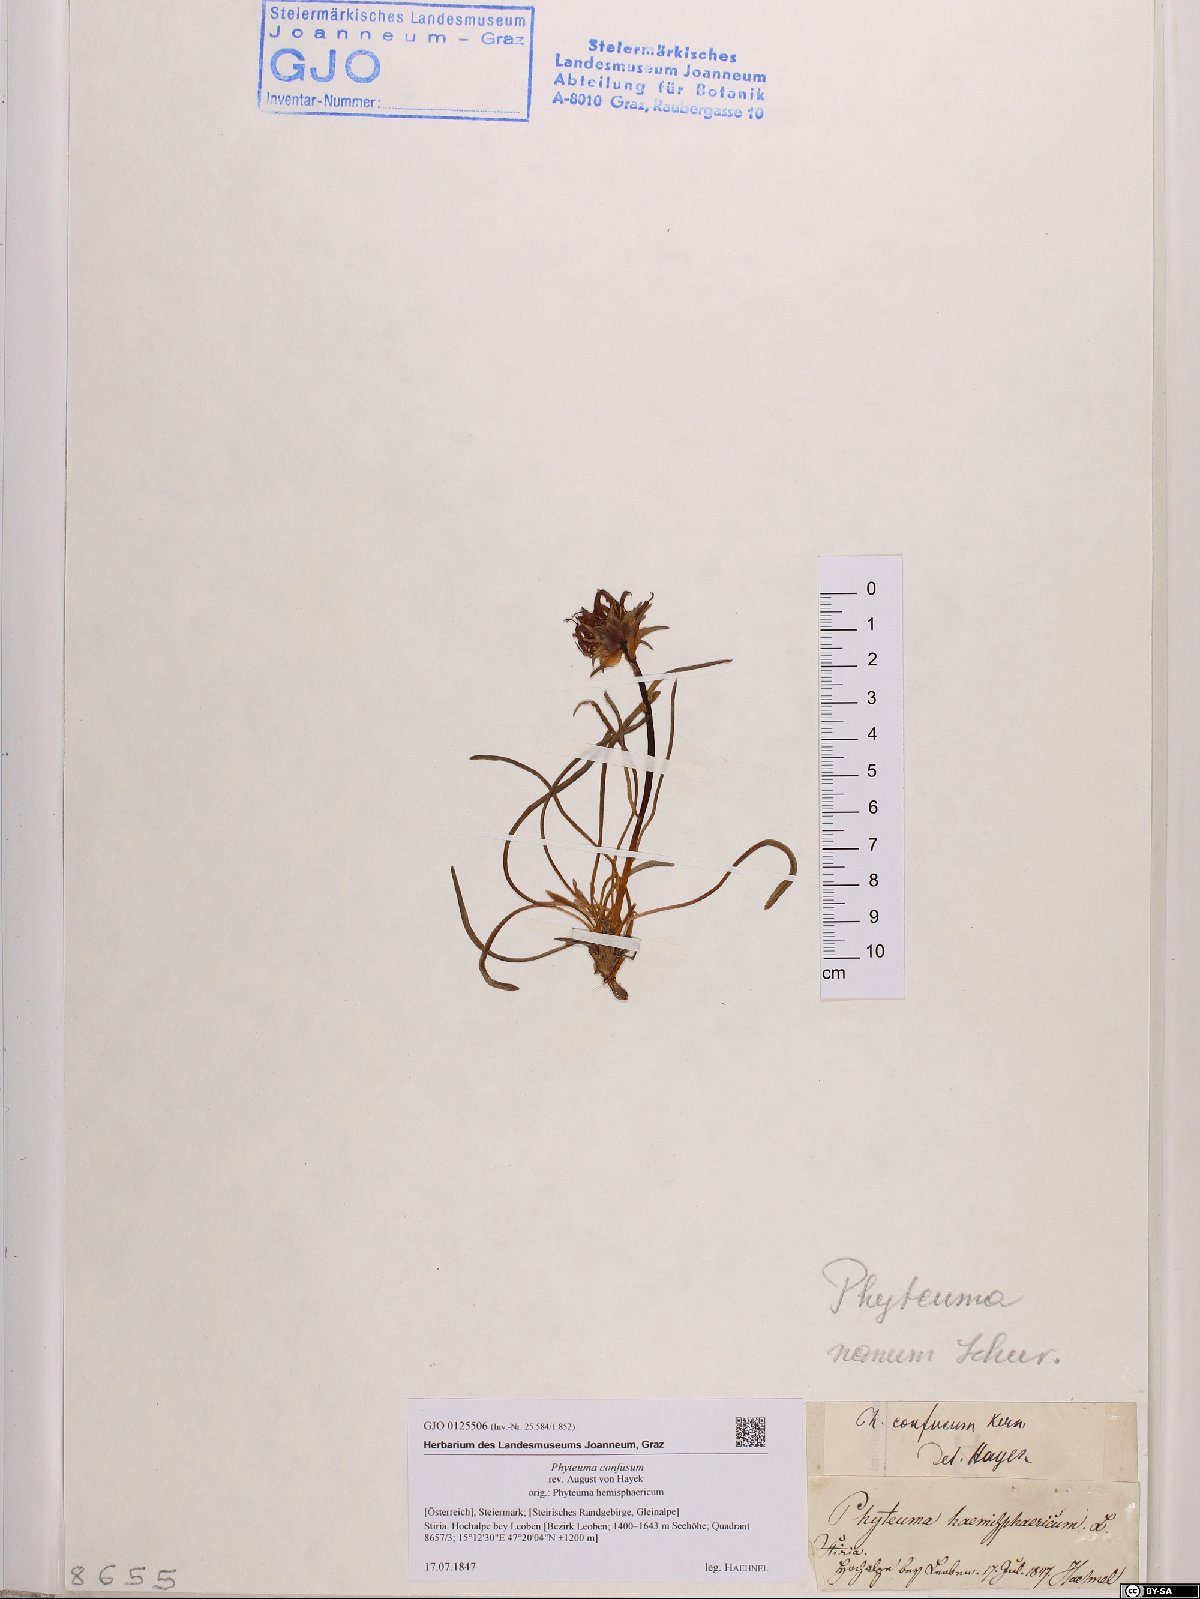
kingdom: Plantae
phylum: Tracheophyta
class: Magnoliopsida
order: Asterales
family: Campanulaceae
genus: Phyteuma
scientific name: Phyteuma confusum
